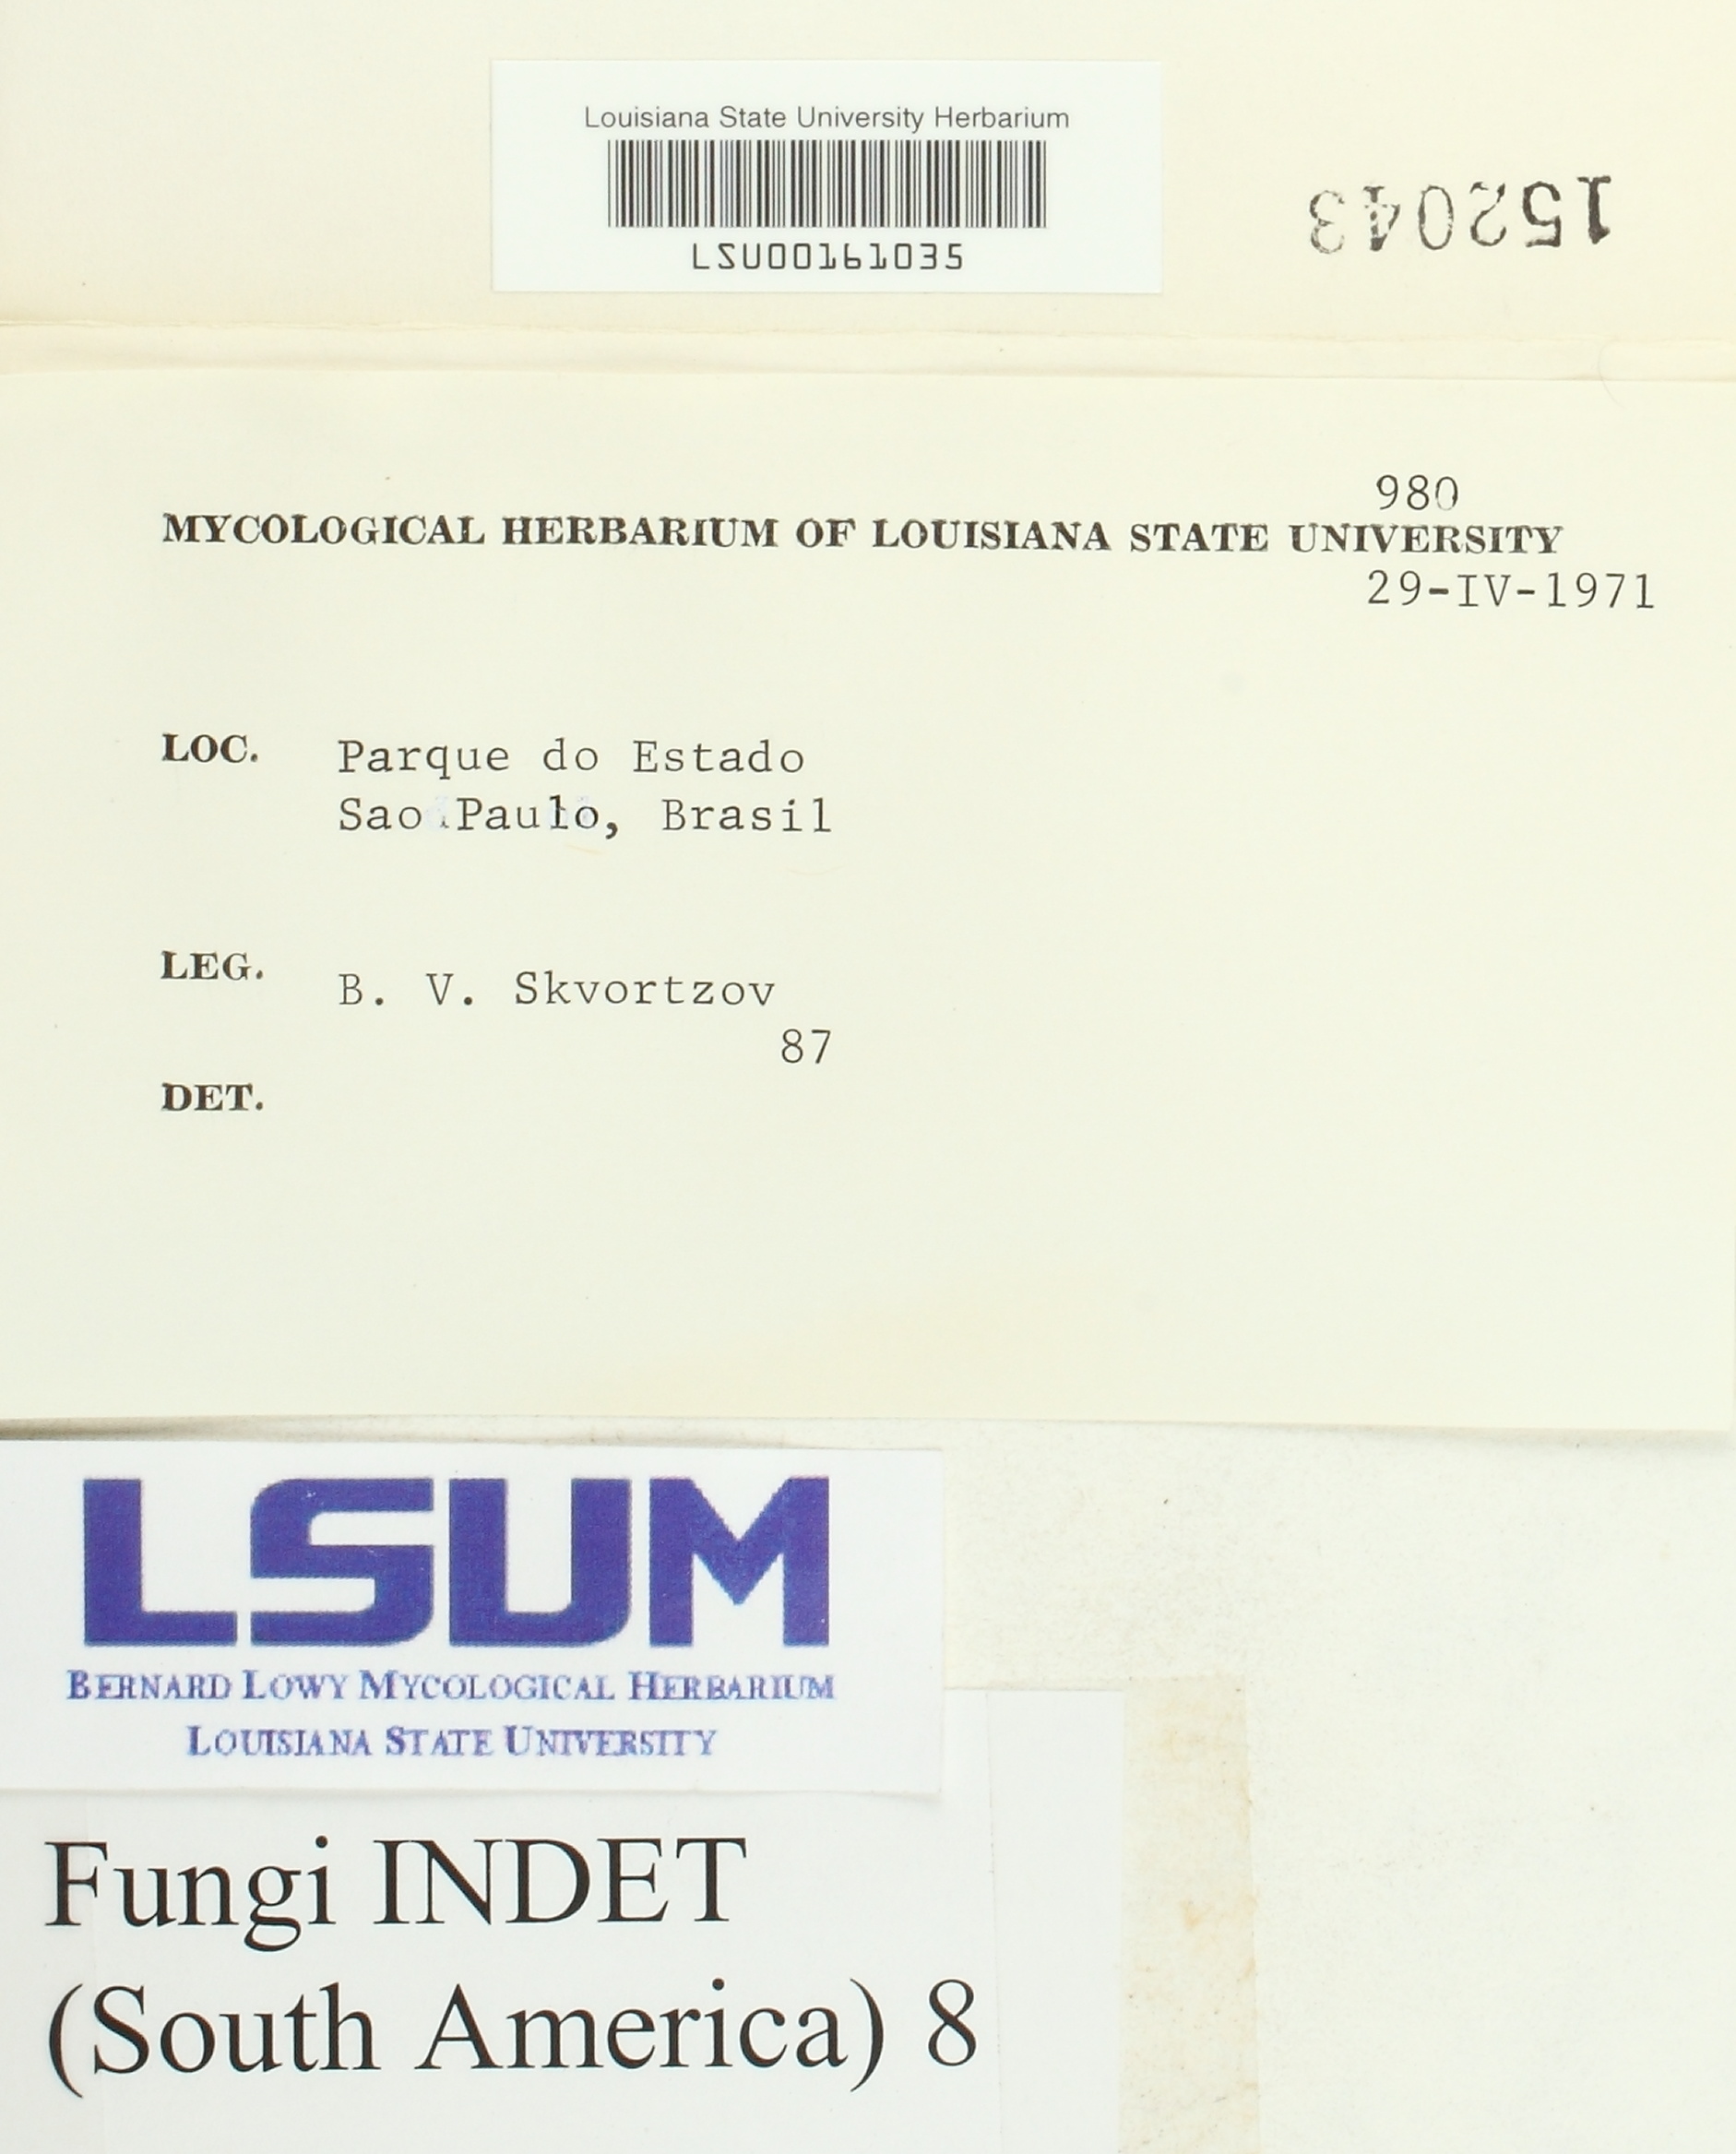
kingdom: Fungi
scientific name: Fungi
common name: Fungi
